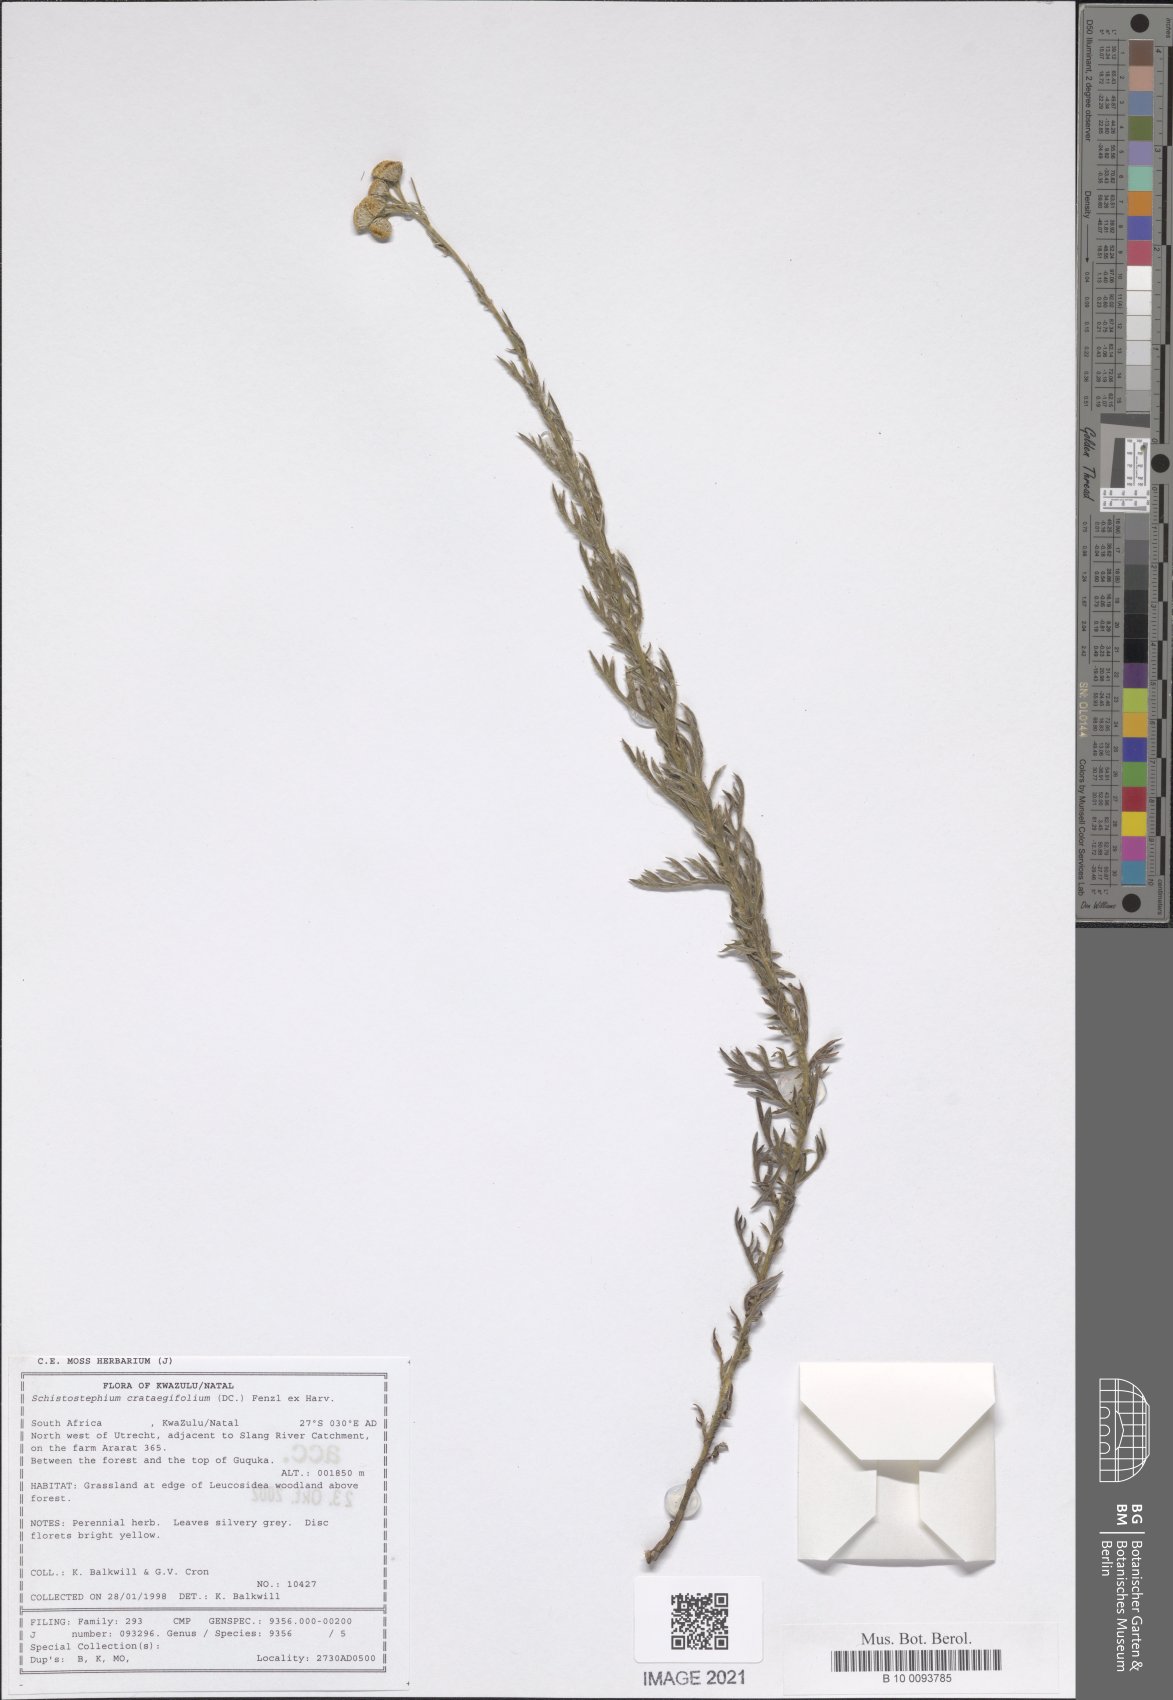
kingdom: Plantae
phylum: Tracheophyta
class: Magnoliopsida
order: Asterales
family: Asteraceae
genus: Schistostephium
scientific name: Schistostephium crataegifolium
